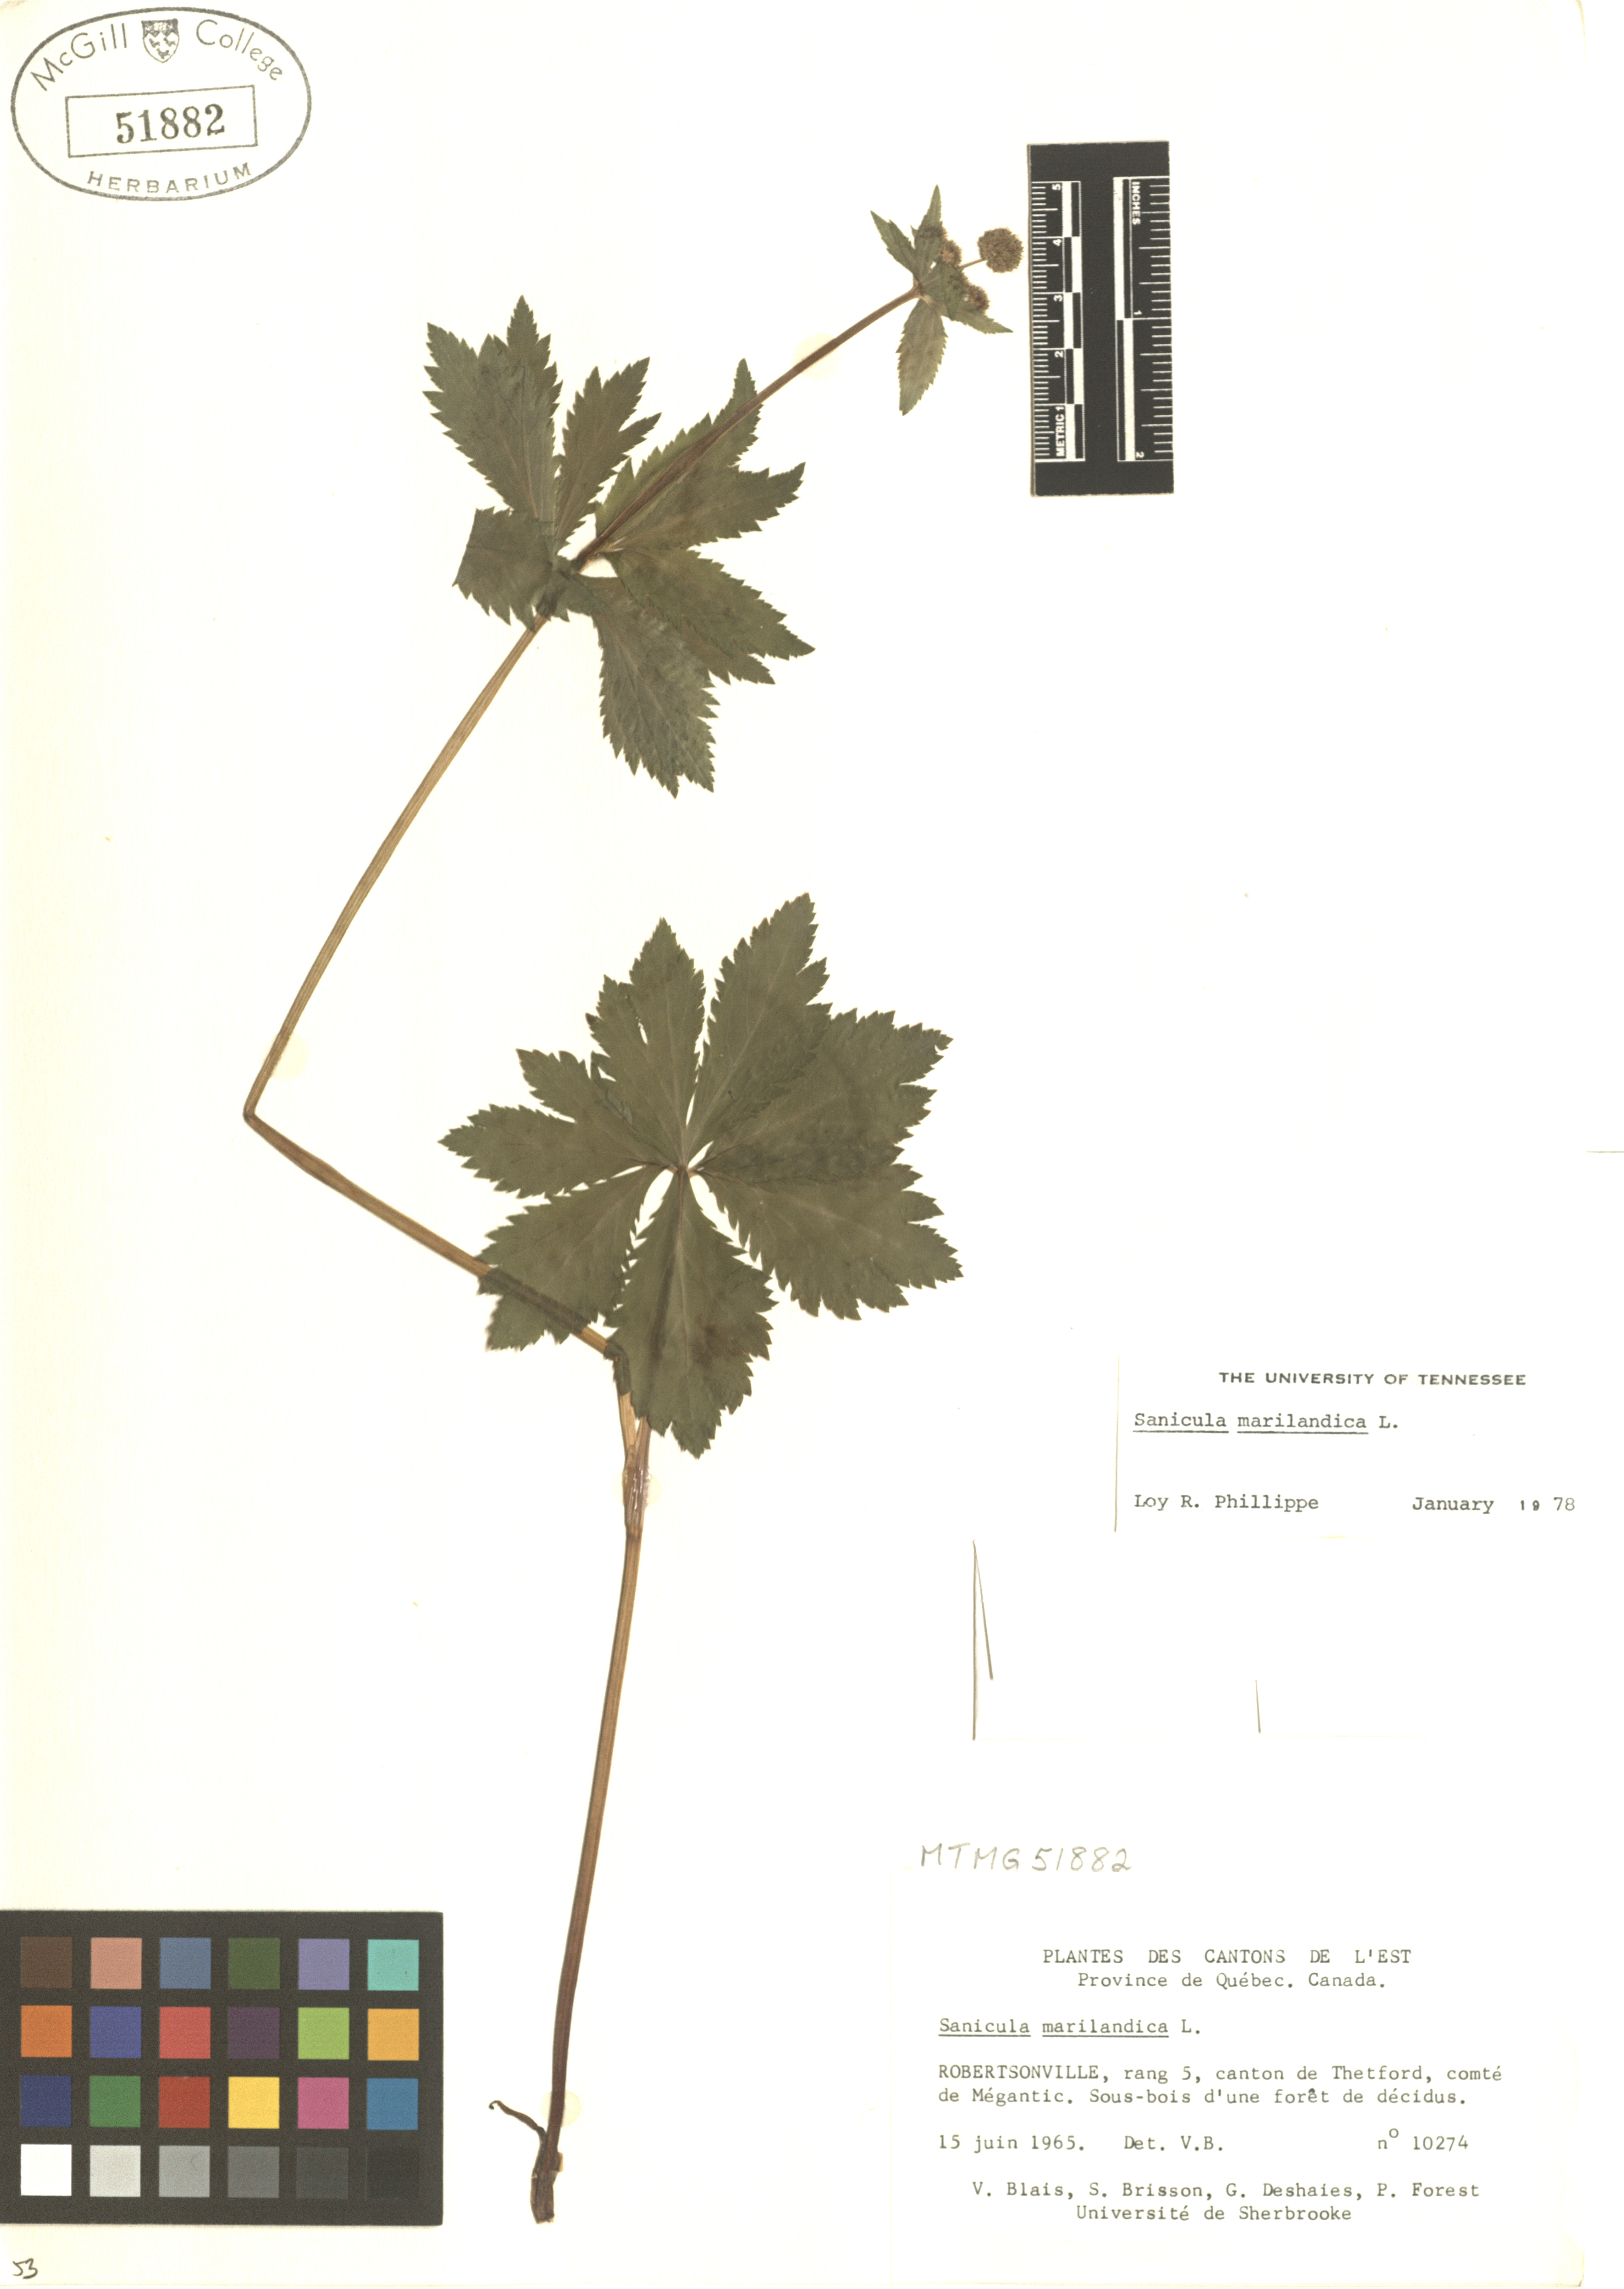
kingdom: Plantae
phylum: Tracheophyta
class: Magnoliopsida
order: Apiales
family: Apiaceae
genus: Sanicula
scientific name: Sanicula marilandica
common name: Black snakeroot
